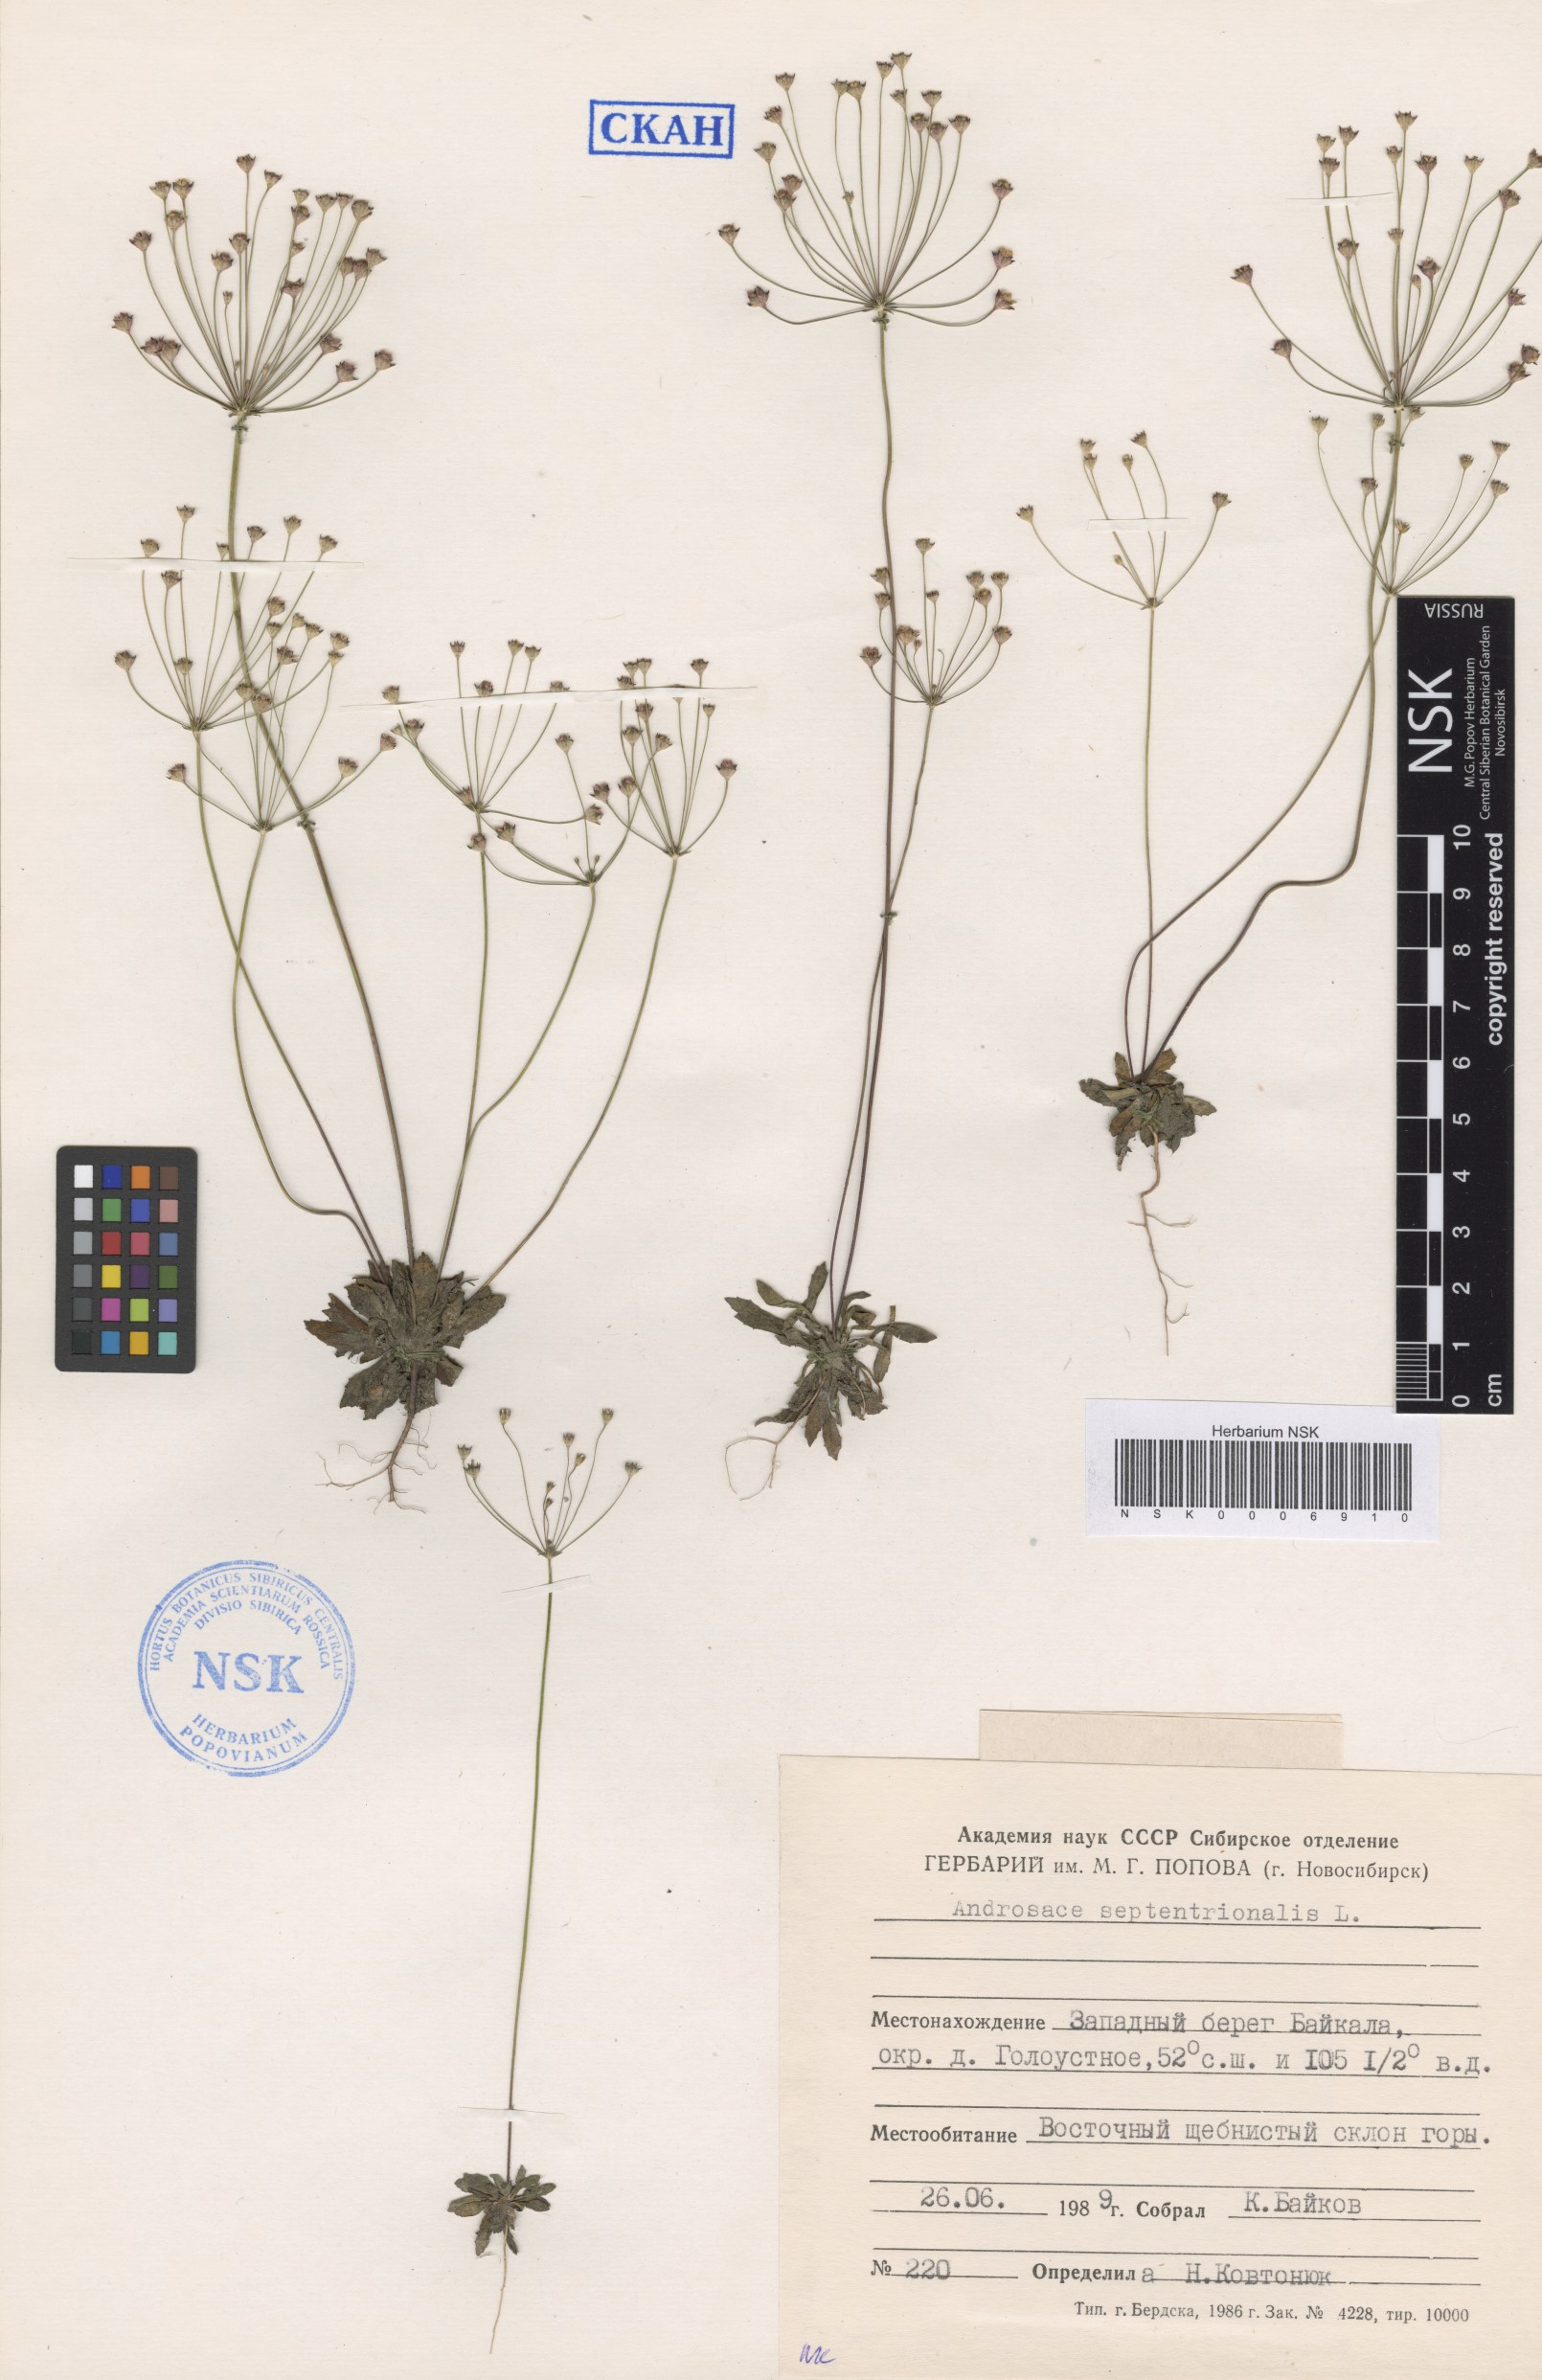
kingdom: Plantae
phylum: Tracheophyta
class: Magnoliopsida
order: Ericales
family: Primulaceae
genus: Androsace
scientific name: Androsace septentrionalis
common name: Hairy northern fairy-candelabra
